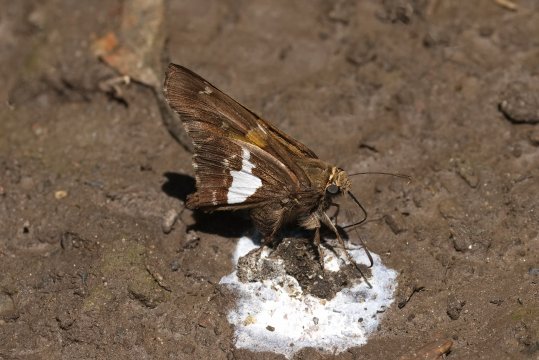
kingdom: Animalia
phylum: Arthropoda
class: Insecta
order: Lepidoptera
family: Hesperiidae
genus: Epargyreus
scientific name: Epargyreus clarus
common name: Silver-spotted Skipper
